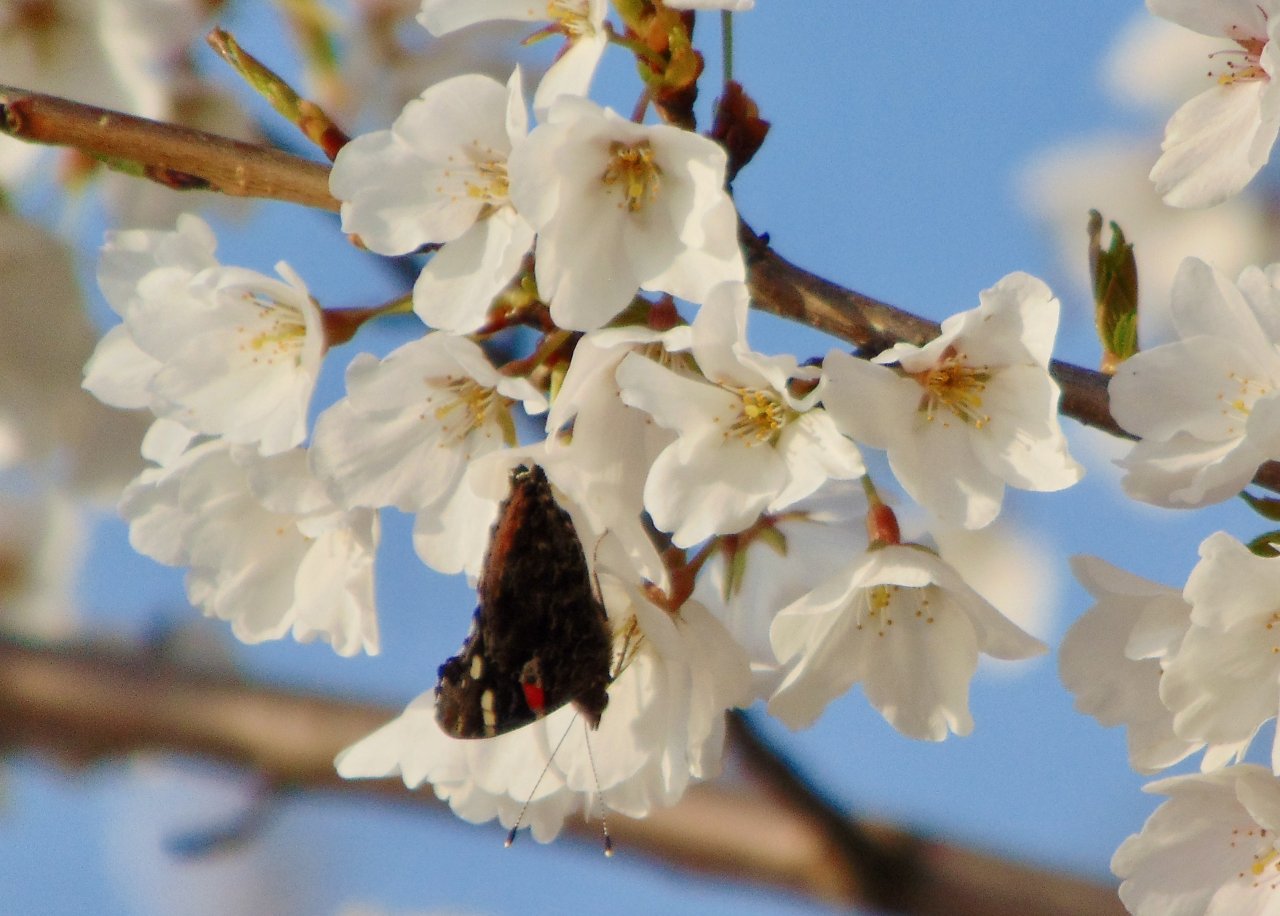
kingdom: Animalia
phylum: Arthropoda
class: Insecta
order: Lepidoptera
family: Nymphalidae
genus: Vanessa
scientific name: Vanessa atalanta
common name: Red Admiral
